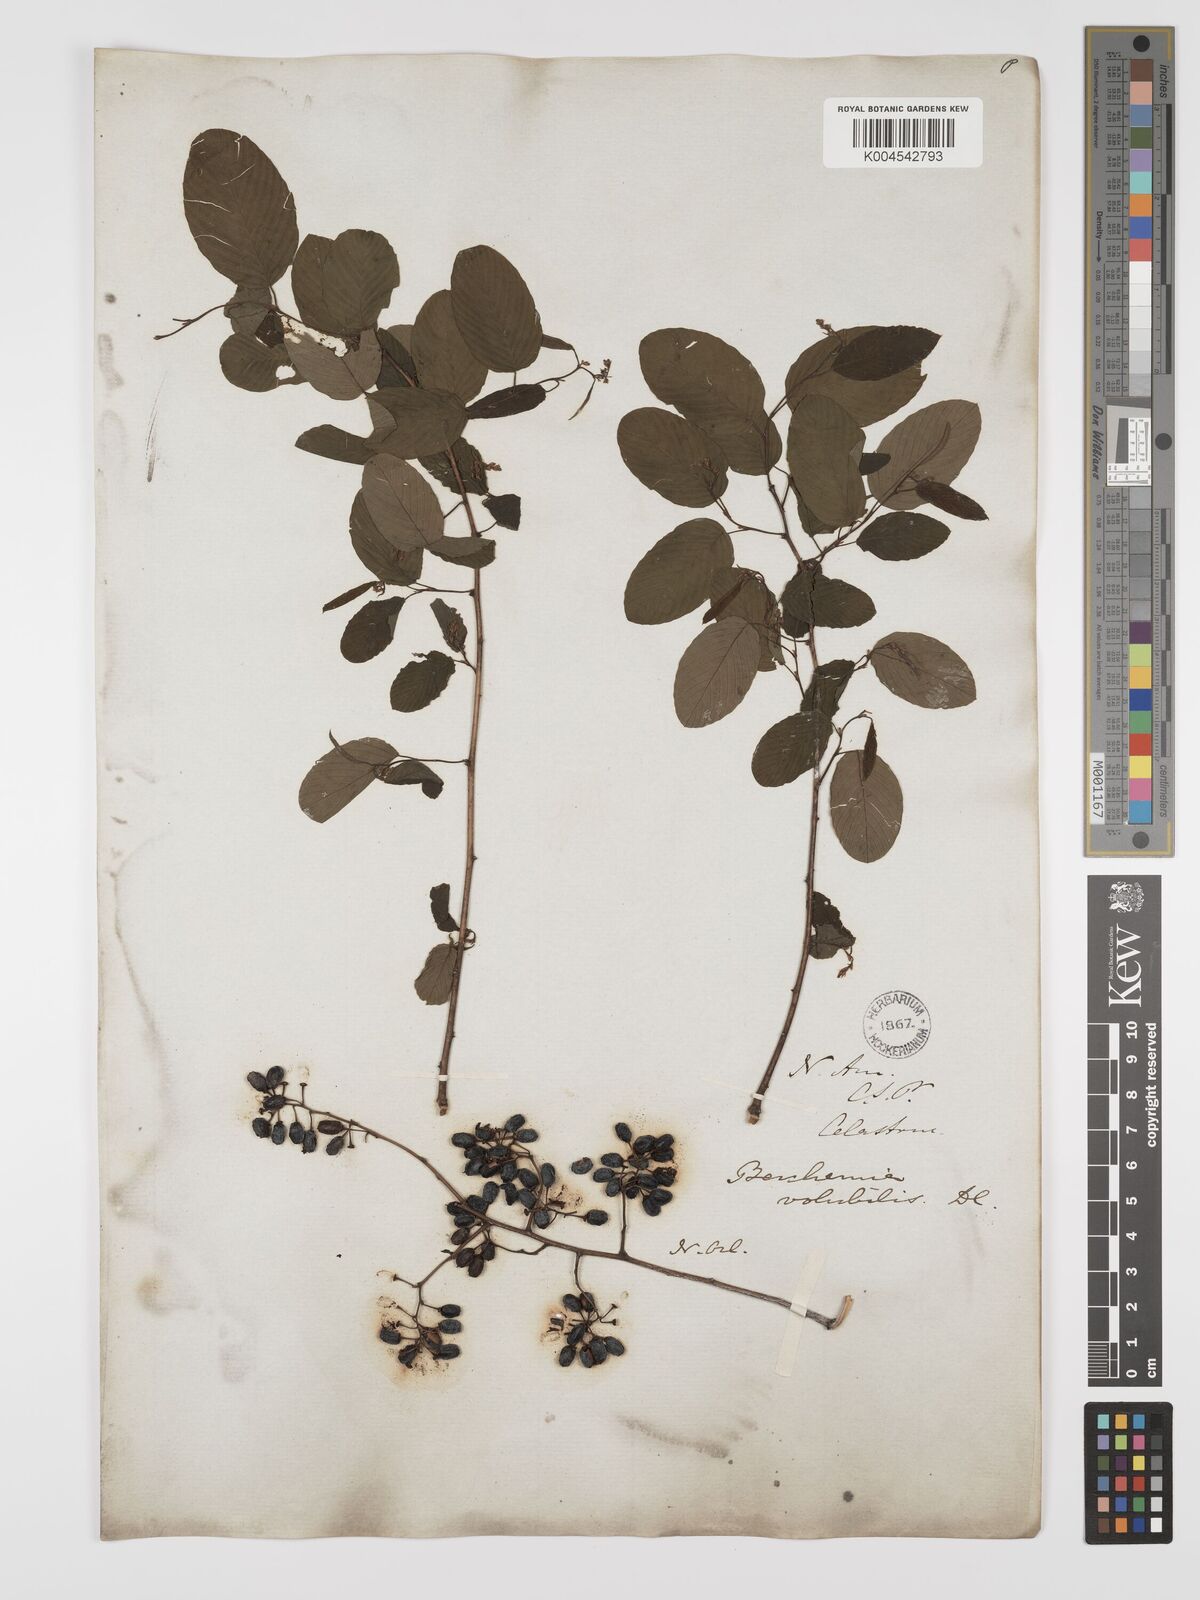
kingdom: Plantae
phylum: Tracheophyta
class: Magnoliopsida
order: Rosales
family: Rhamnaceae
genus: Berchemia
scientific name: Berchemia scandens
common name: Supplejack
